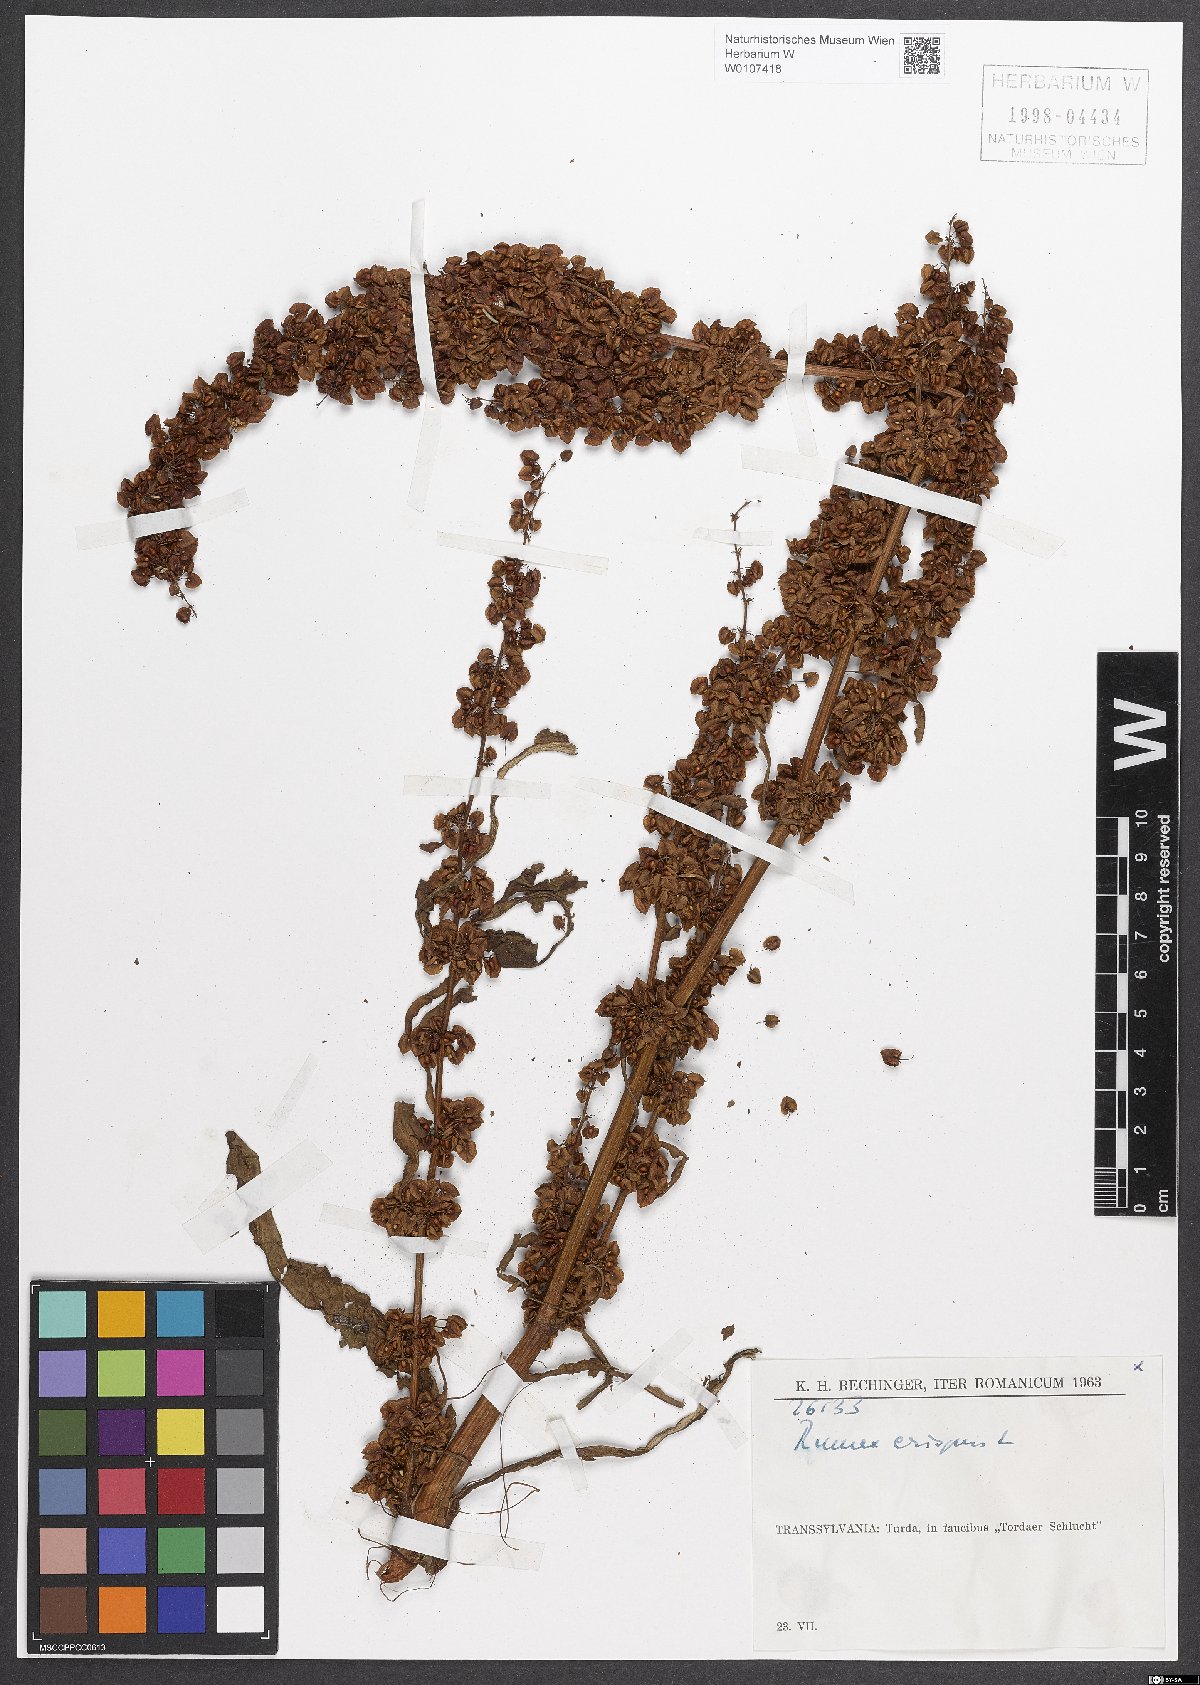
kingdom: Plantae
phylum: Tracheophyta
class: Magnoliopsida
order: Caryophyllales
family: Polygonaceae
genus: Rumex
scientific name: Rumex crispus
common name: Curled dock
